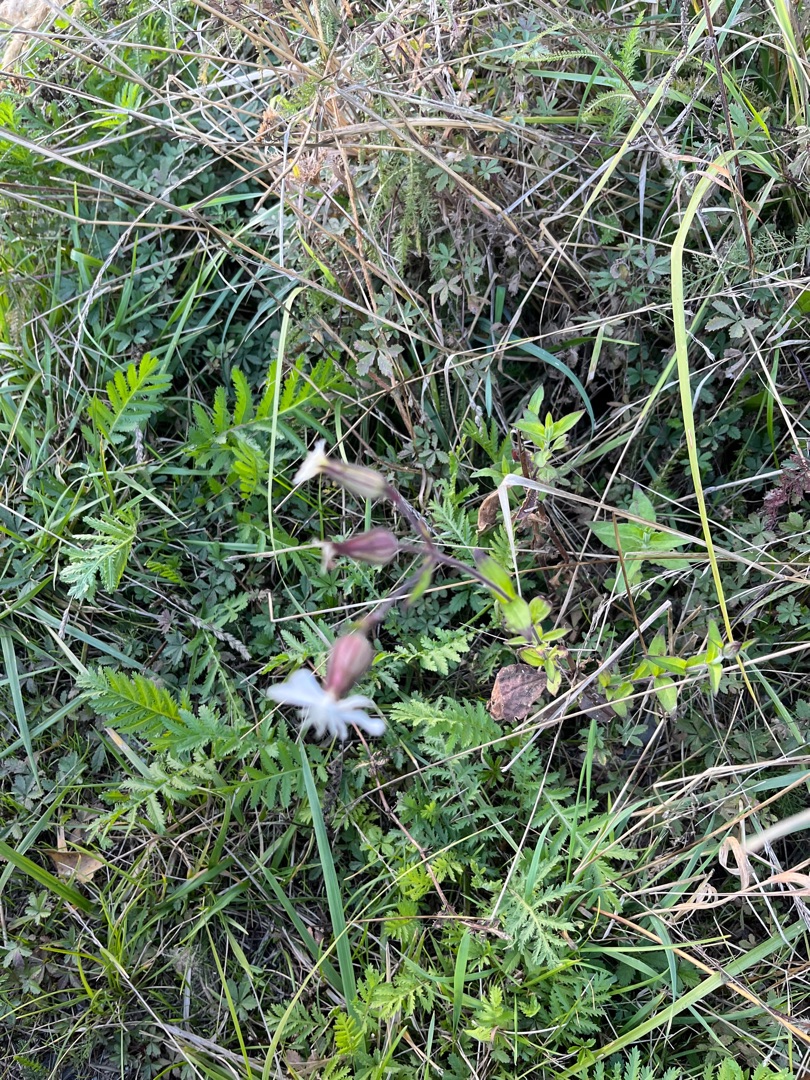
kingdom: Plantae
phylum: Tracheophyta
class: Magnoliopsida
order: Caryophyllales
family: Caryophyllaceae
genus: Silene
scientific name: Silene latifolia
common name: Aftenpragtstjerne
